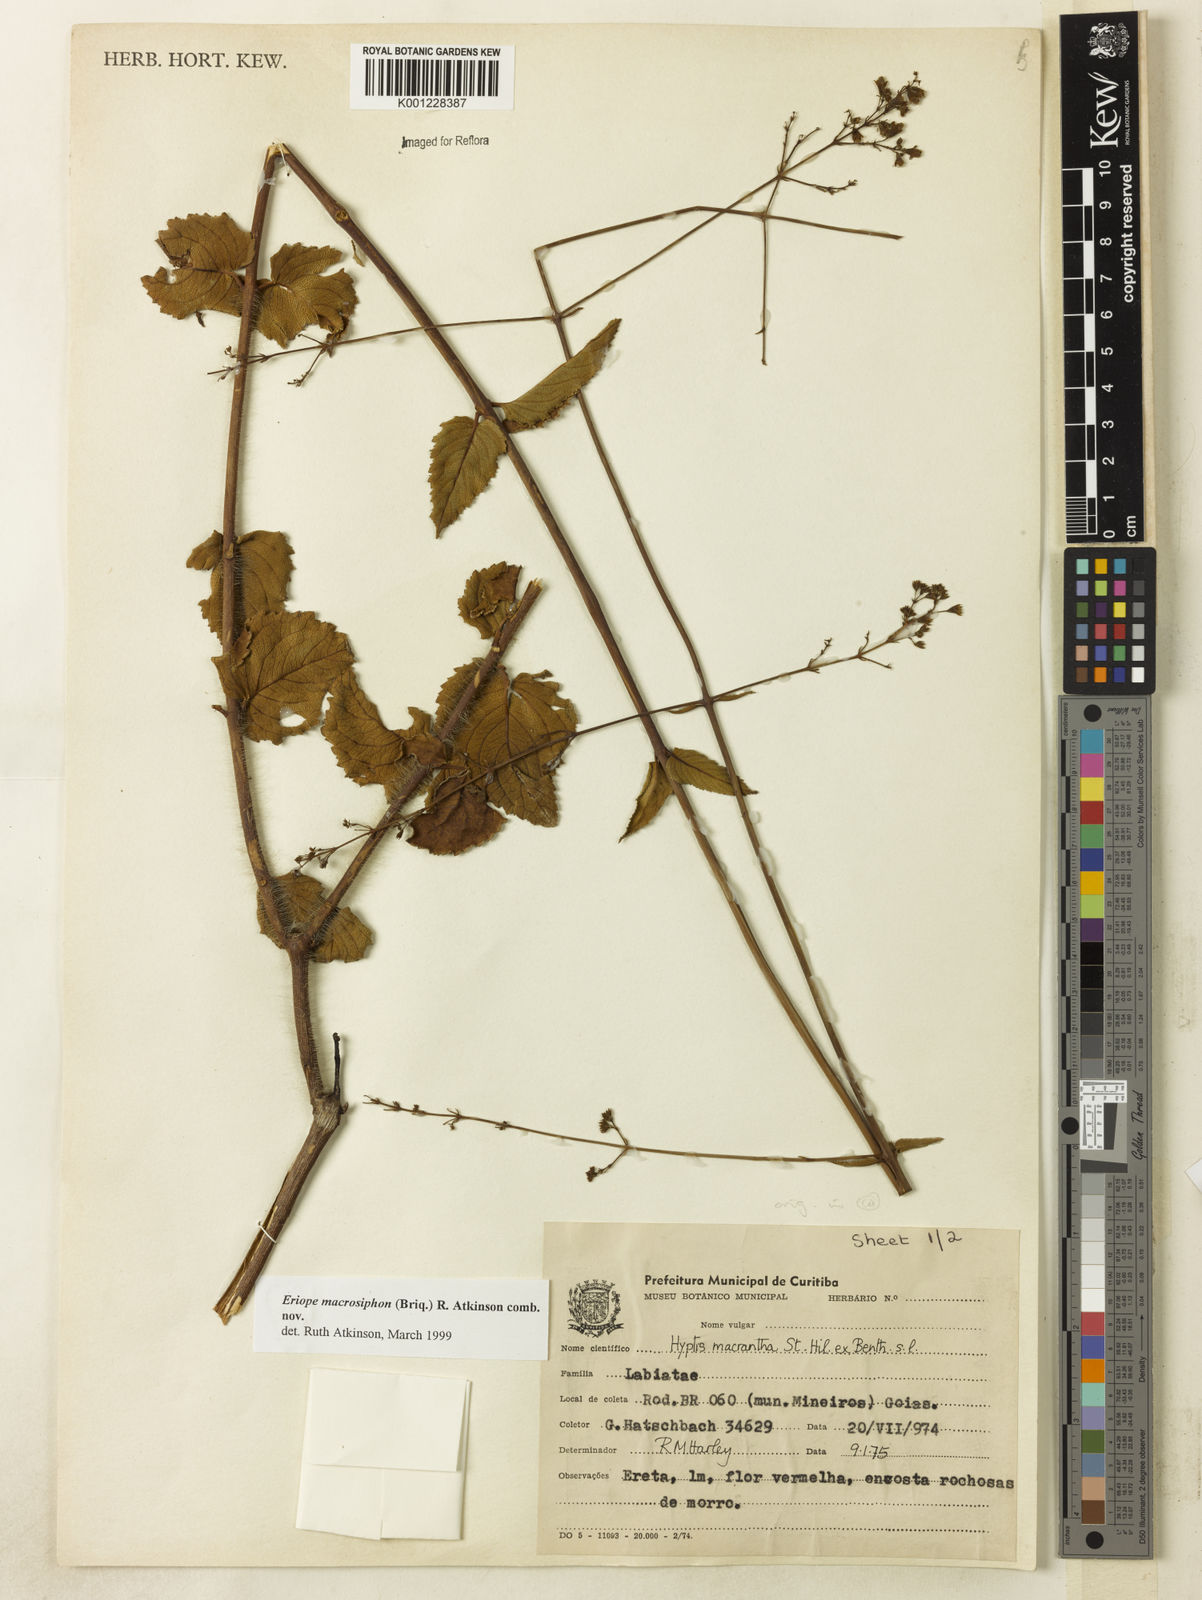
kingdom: Plantae
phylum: Tracheophyta
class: Magnoliopsida
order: Lamiales
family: Lamiaceae
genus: Hypenia
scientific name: Hypenia macrosiphon
